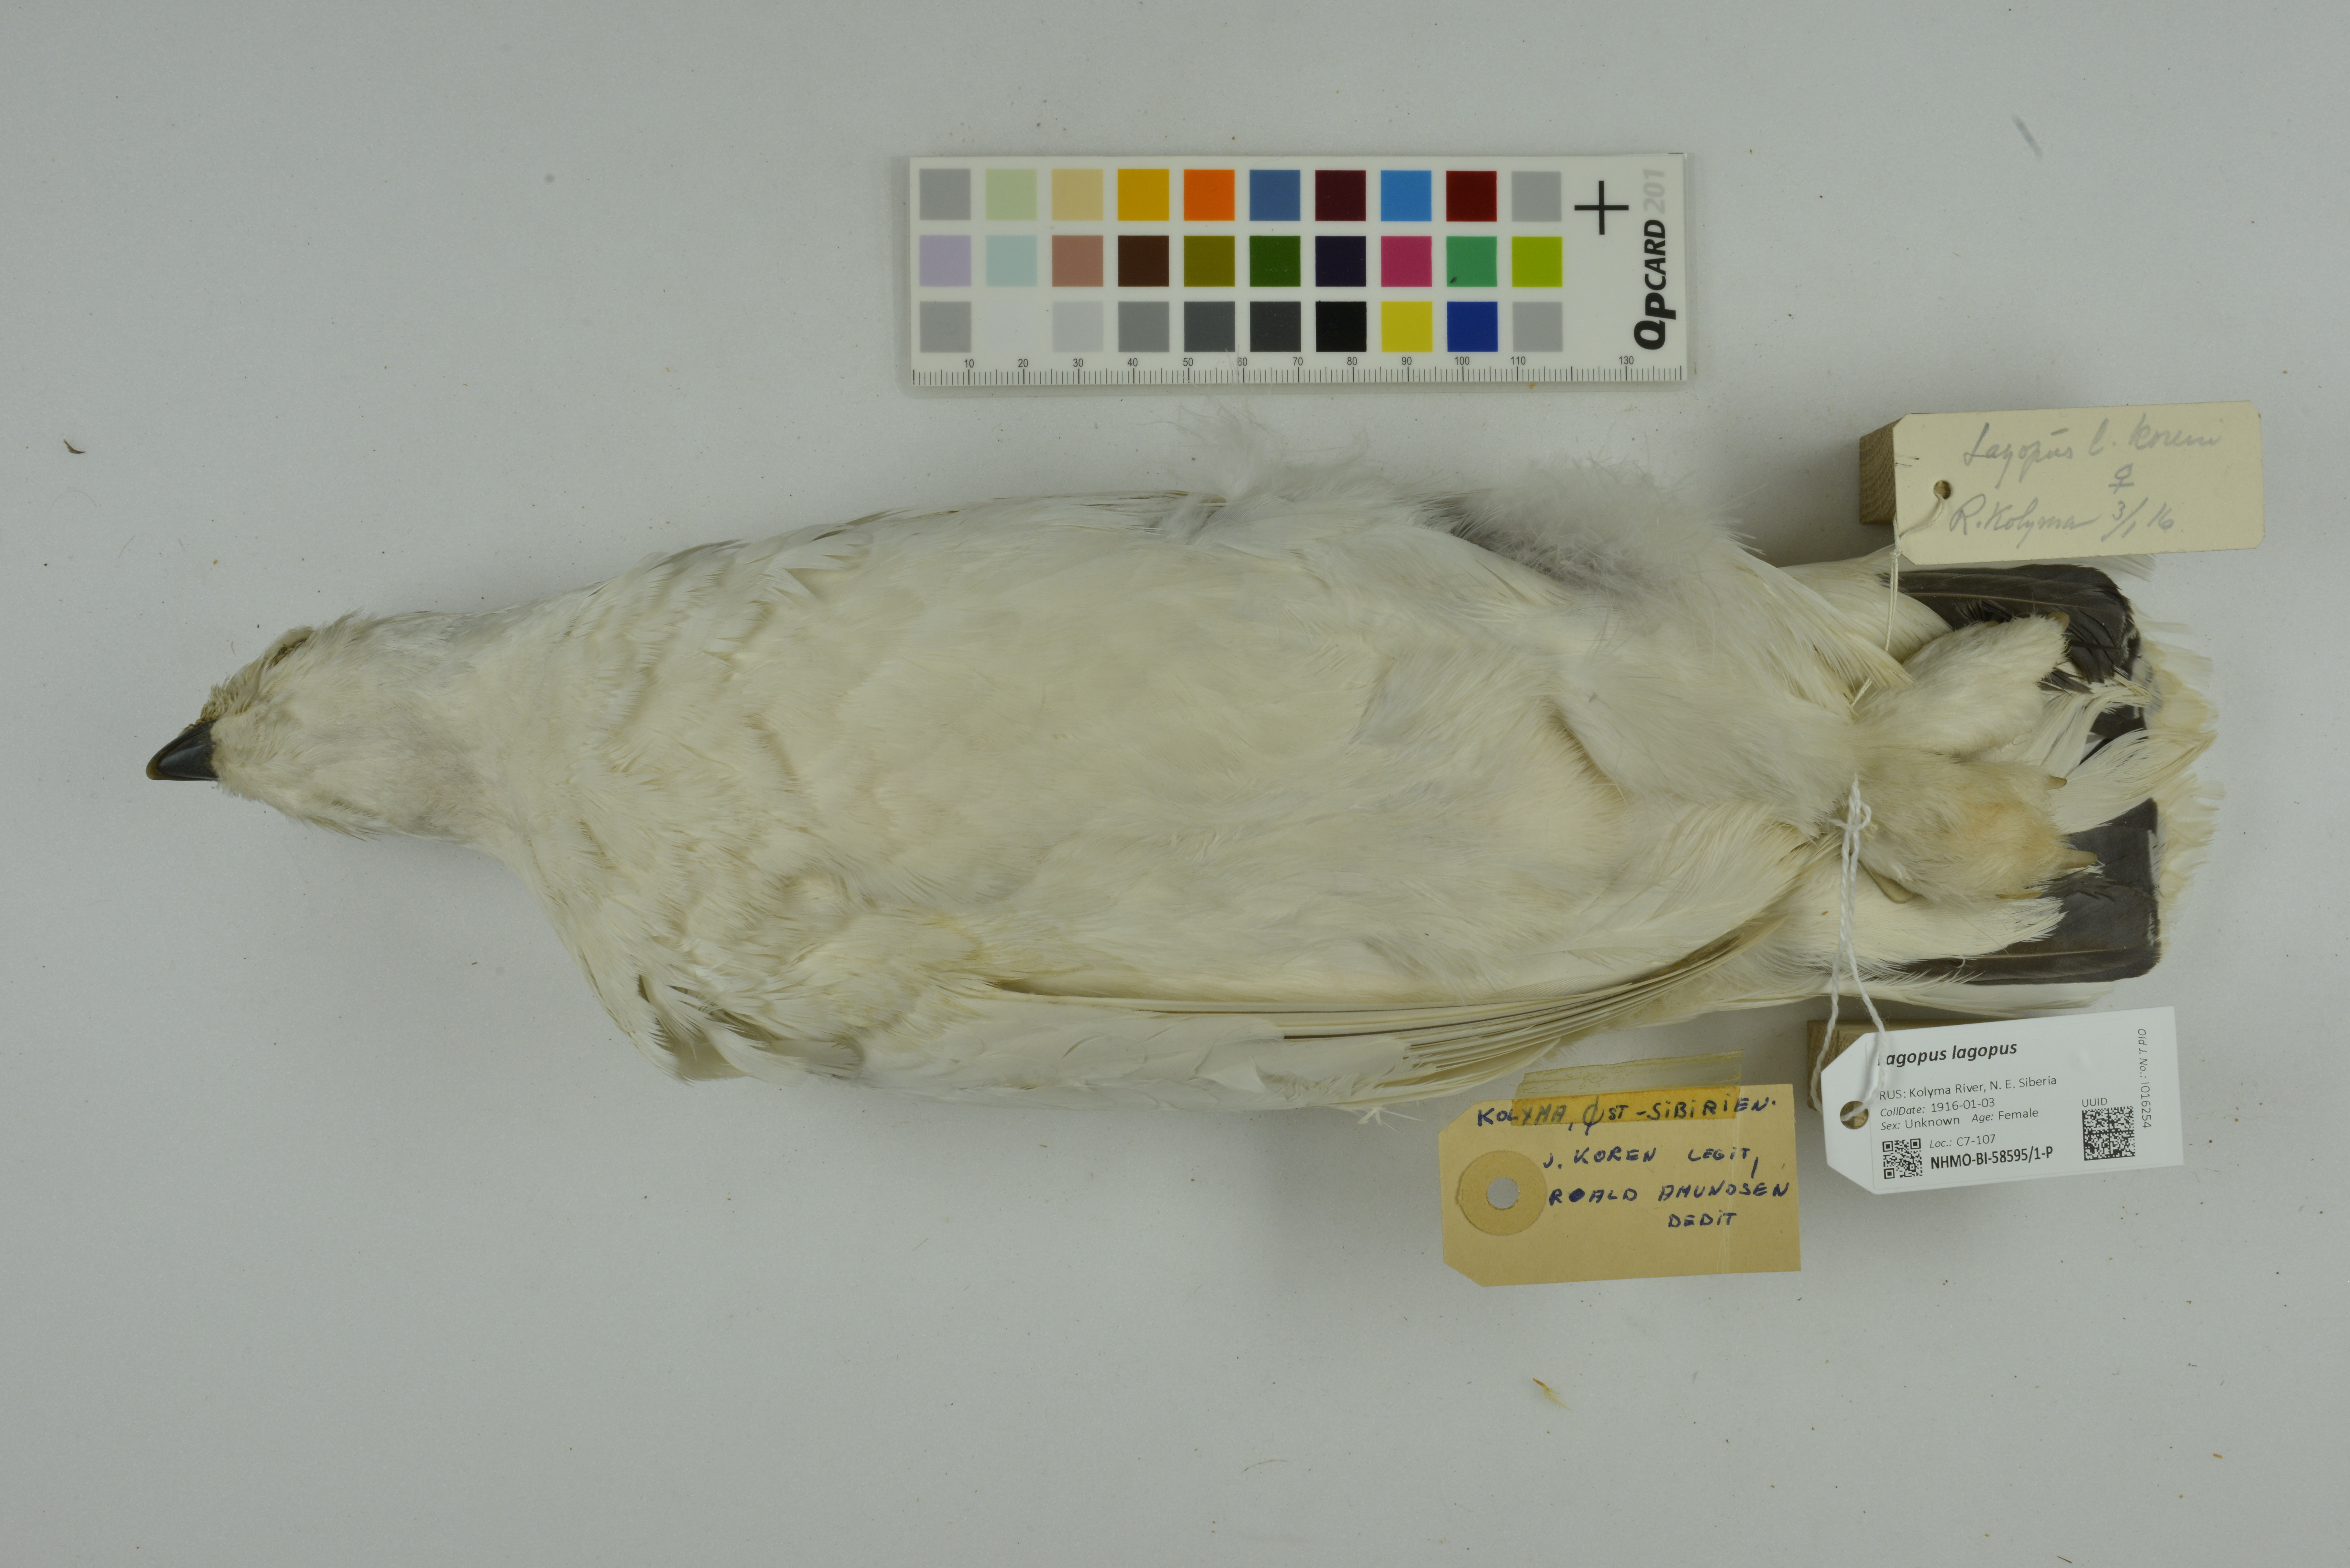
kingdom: Animalia
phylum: Chordata
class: Aves
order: Galliformes
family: Phasianidae
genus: Lagopus
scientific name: Lagopus lagopus
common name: Willow ptarmigan
